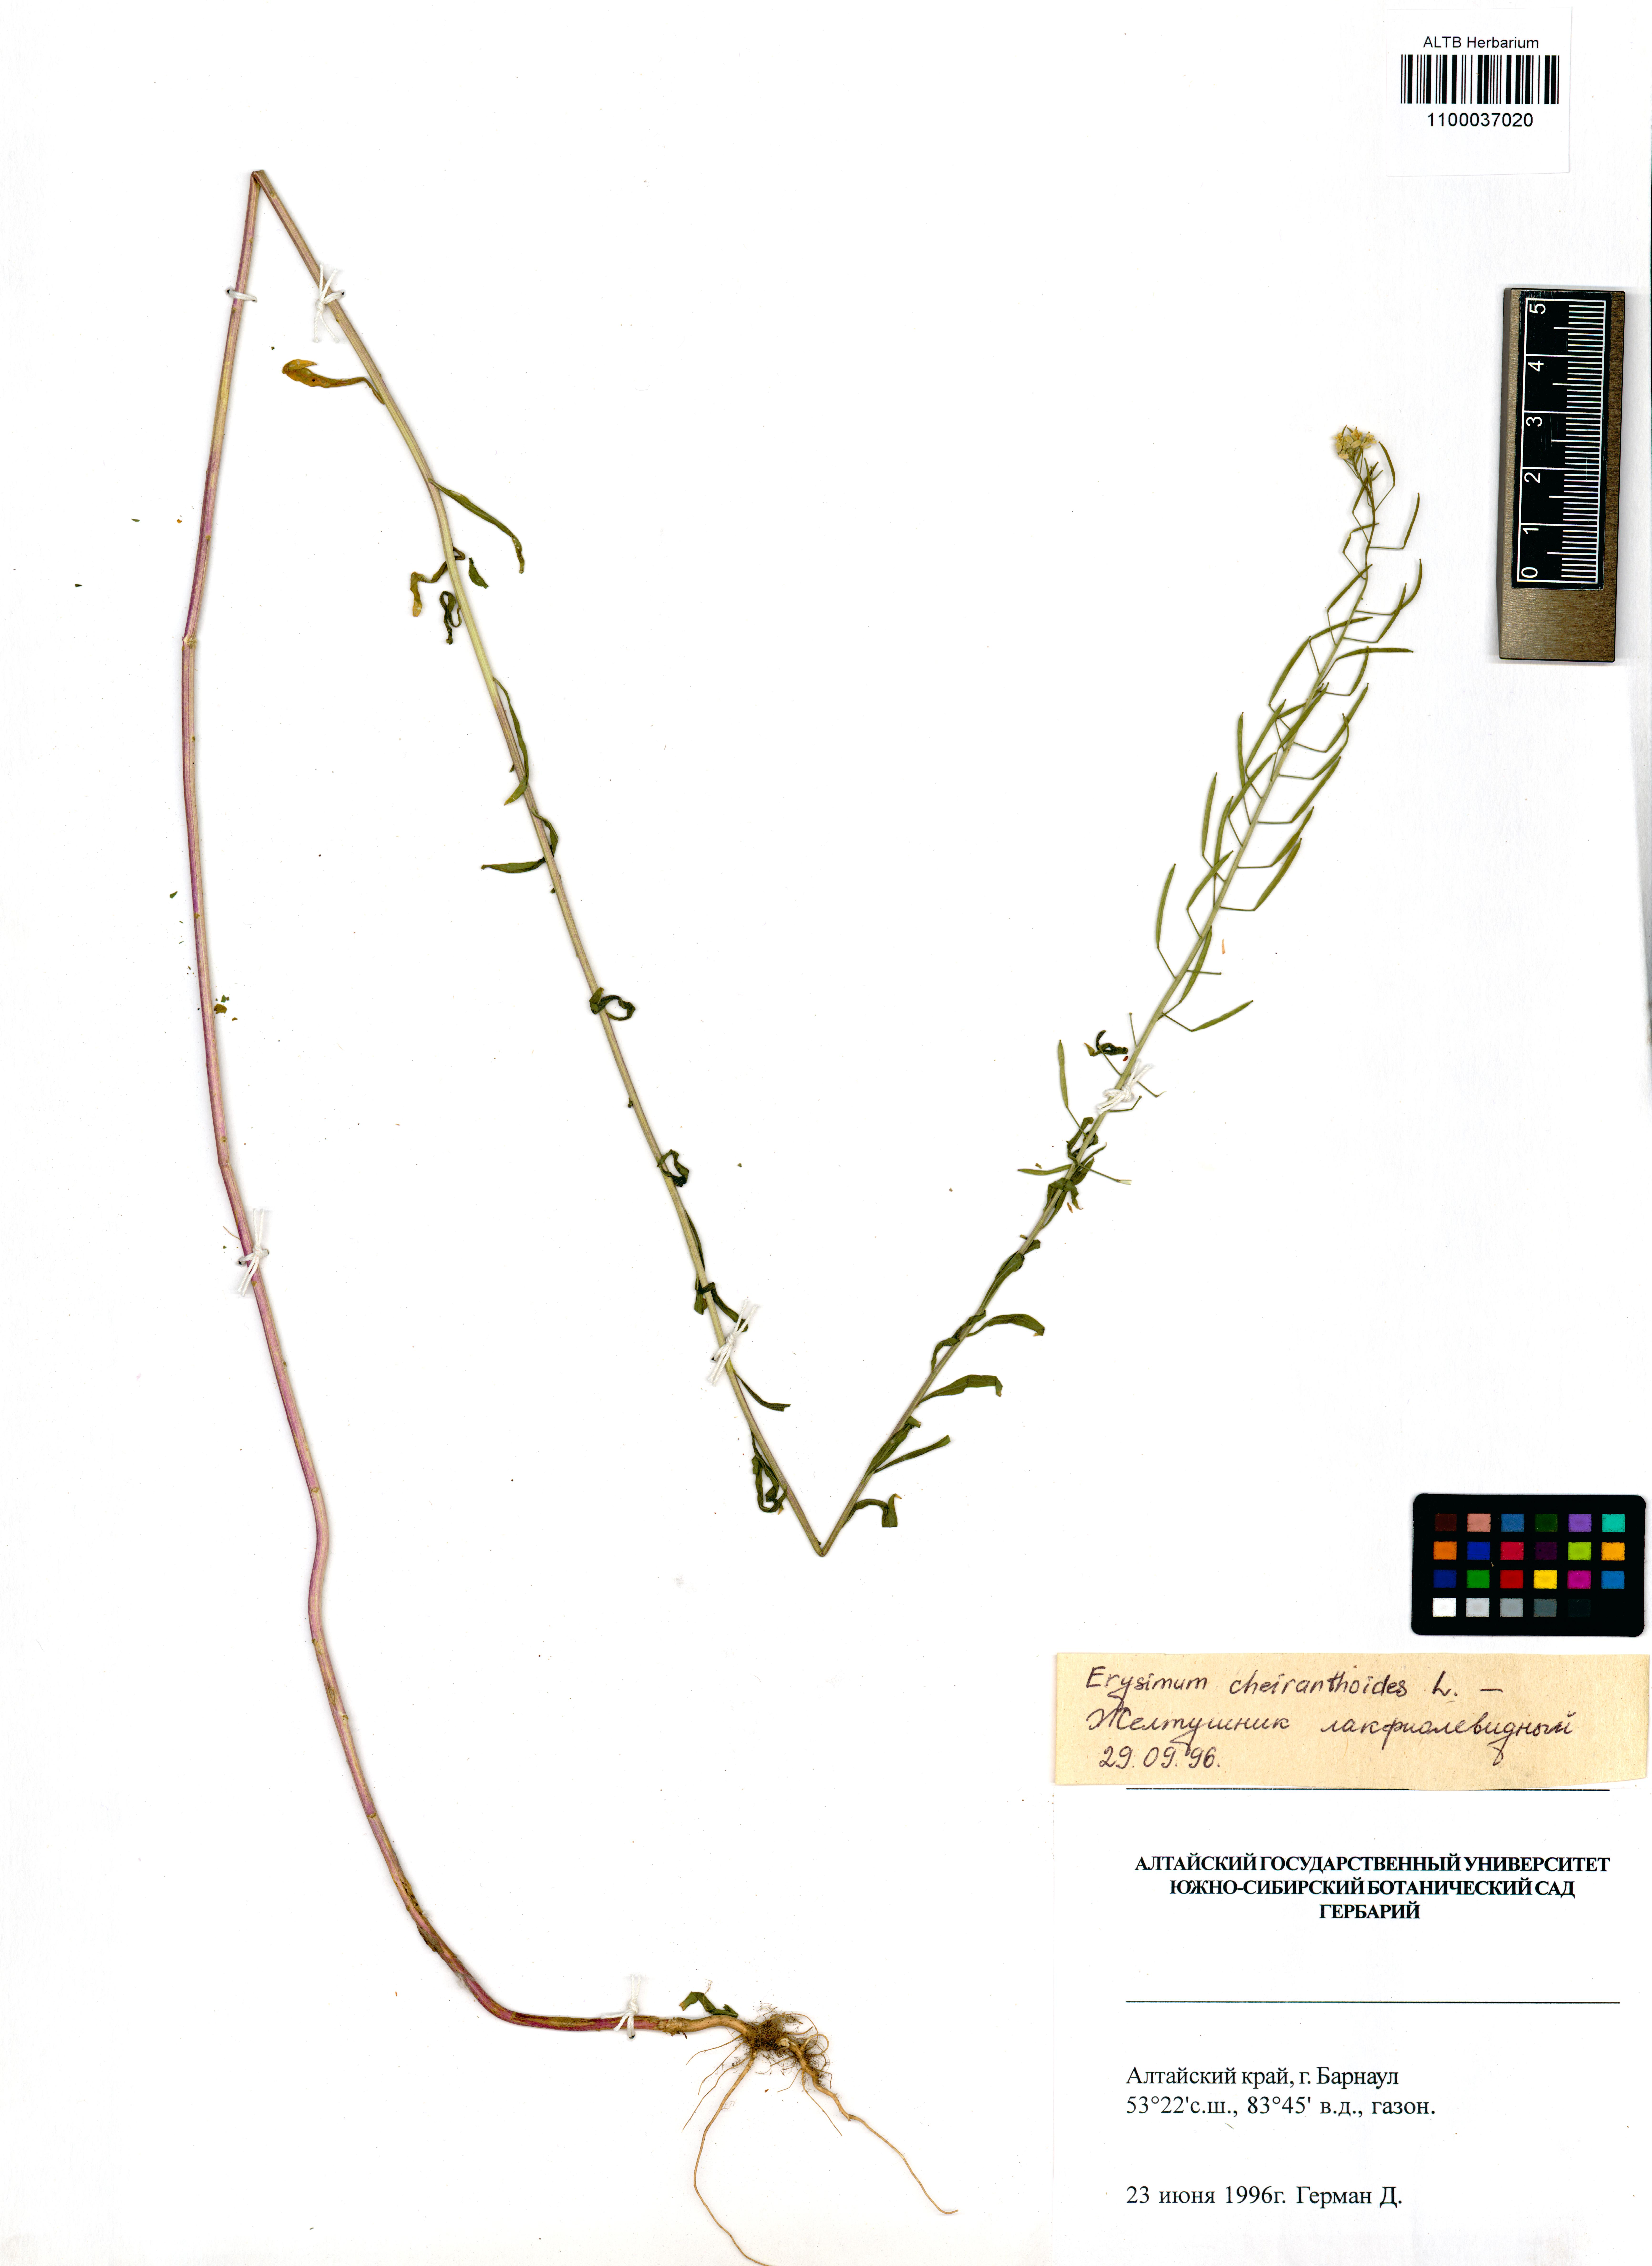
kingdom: Plantae
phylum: Tracheophyta
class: Magnoliopsida
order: Brassicales
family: Brassicaceae
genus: Erysimum
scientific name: Erysimum cheiranthoides
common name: Treacle mustard
